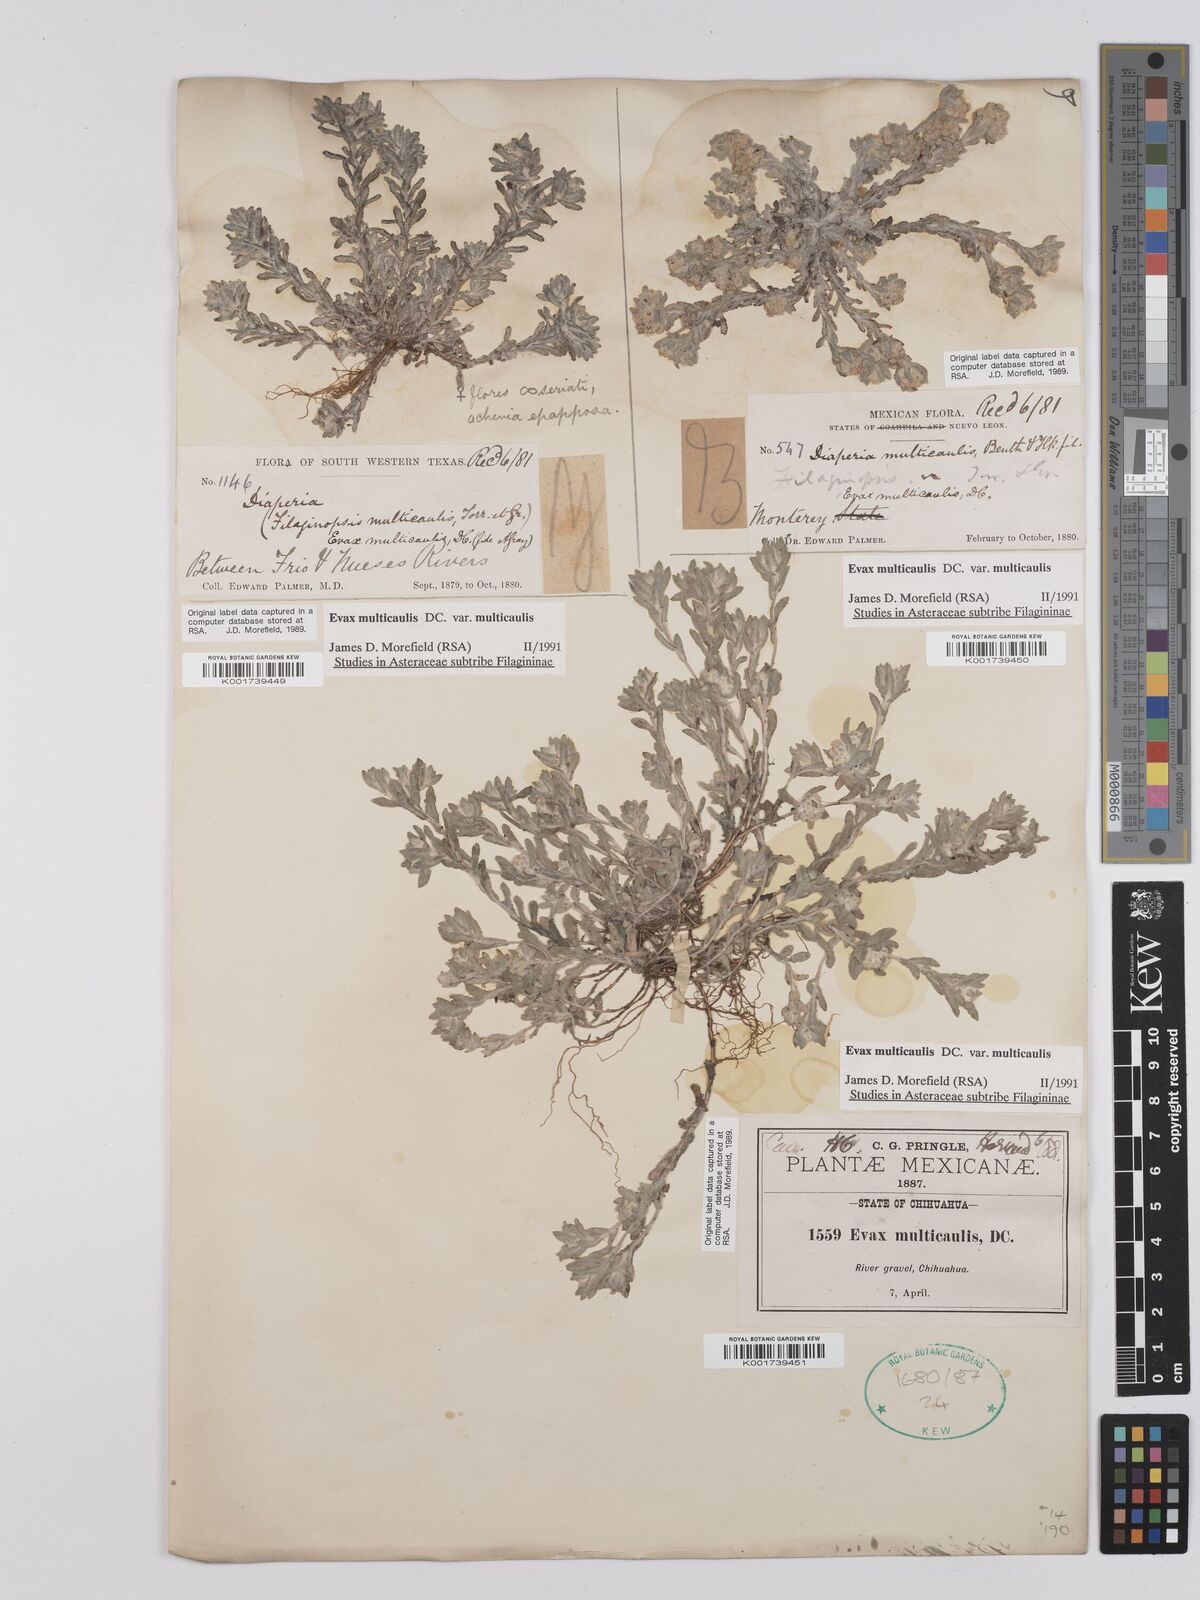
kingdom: Plantae
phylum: Tracheophyta
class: Magnoliopsida
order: Asterales
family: Asteraceae
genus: Filago
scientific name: Filago
